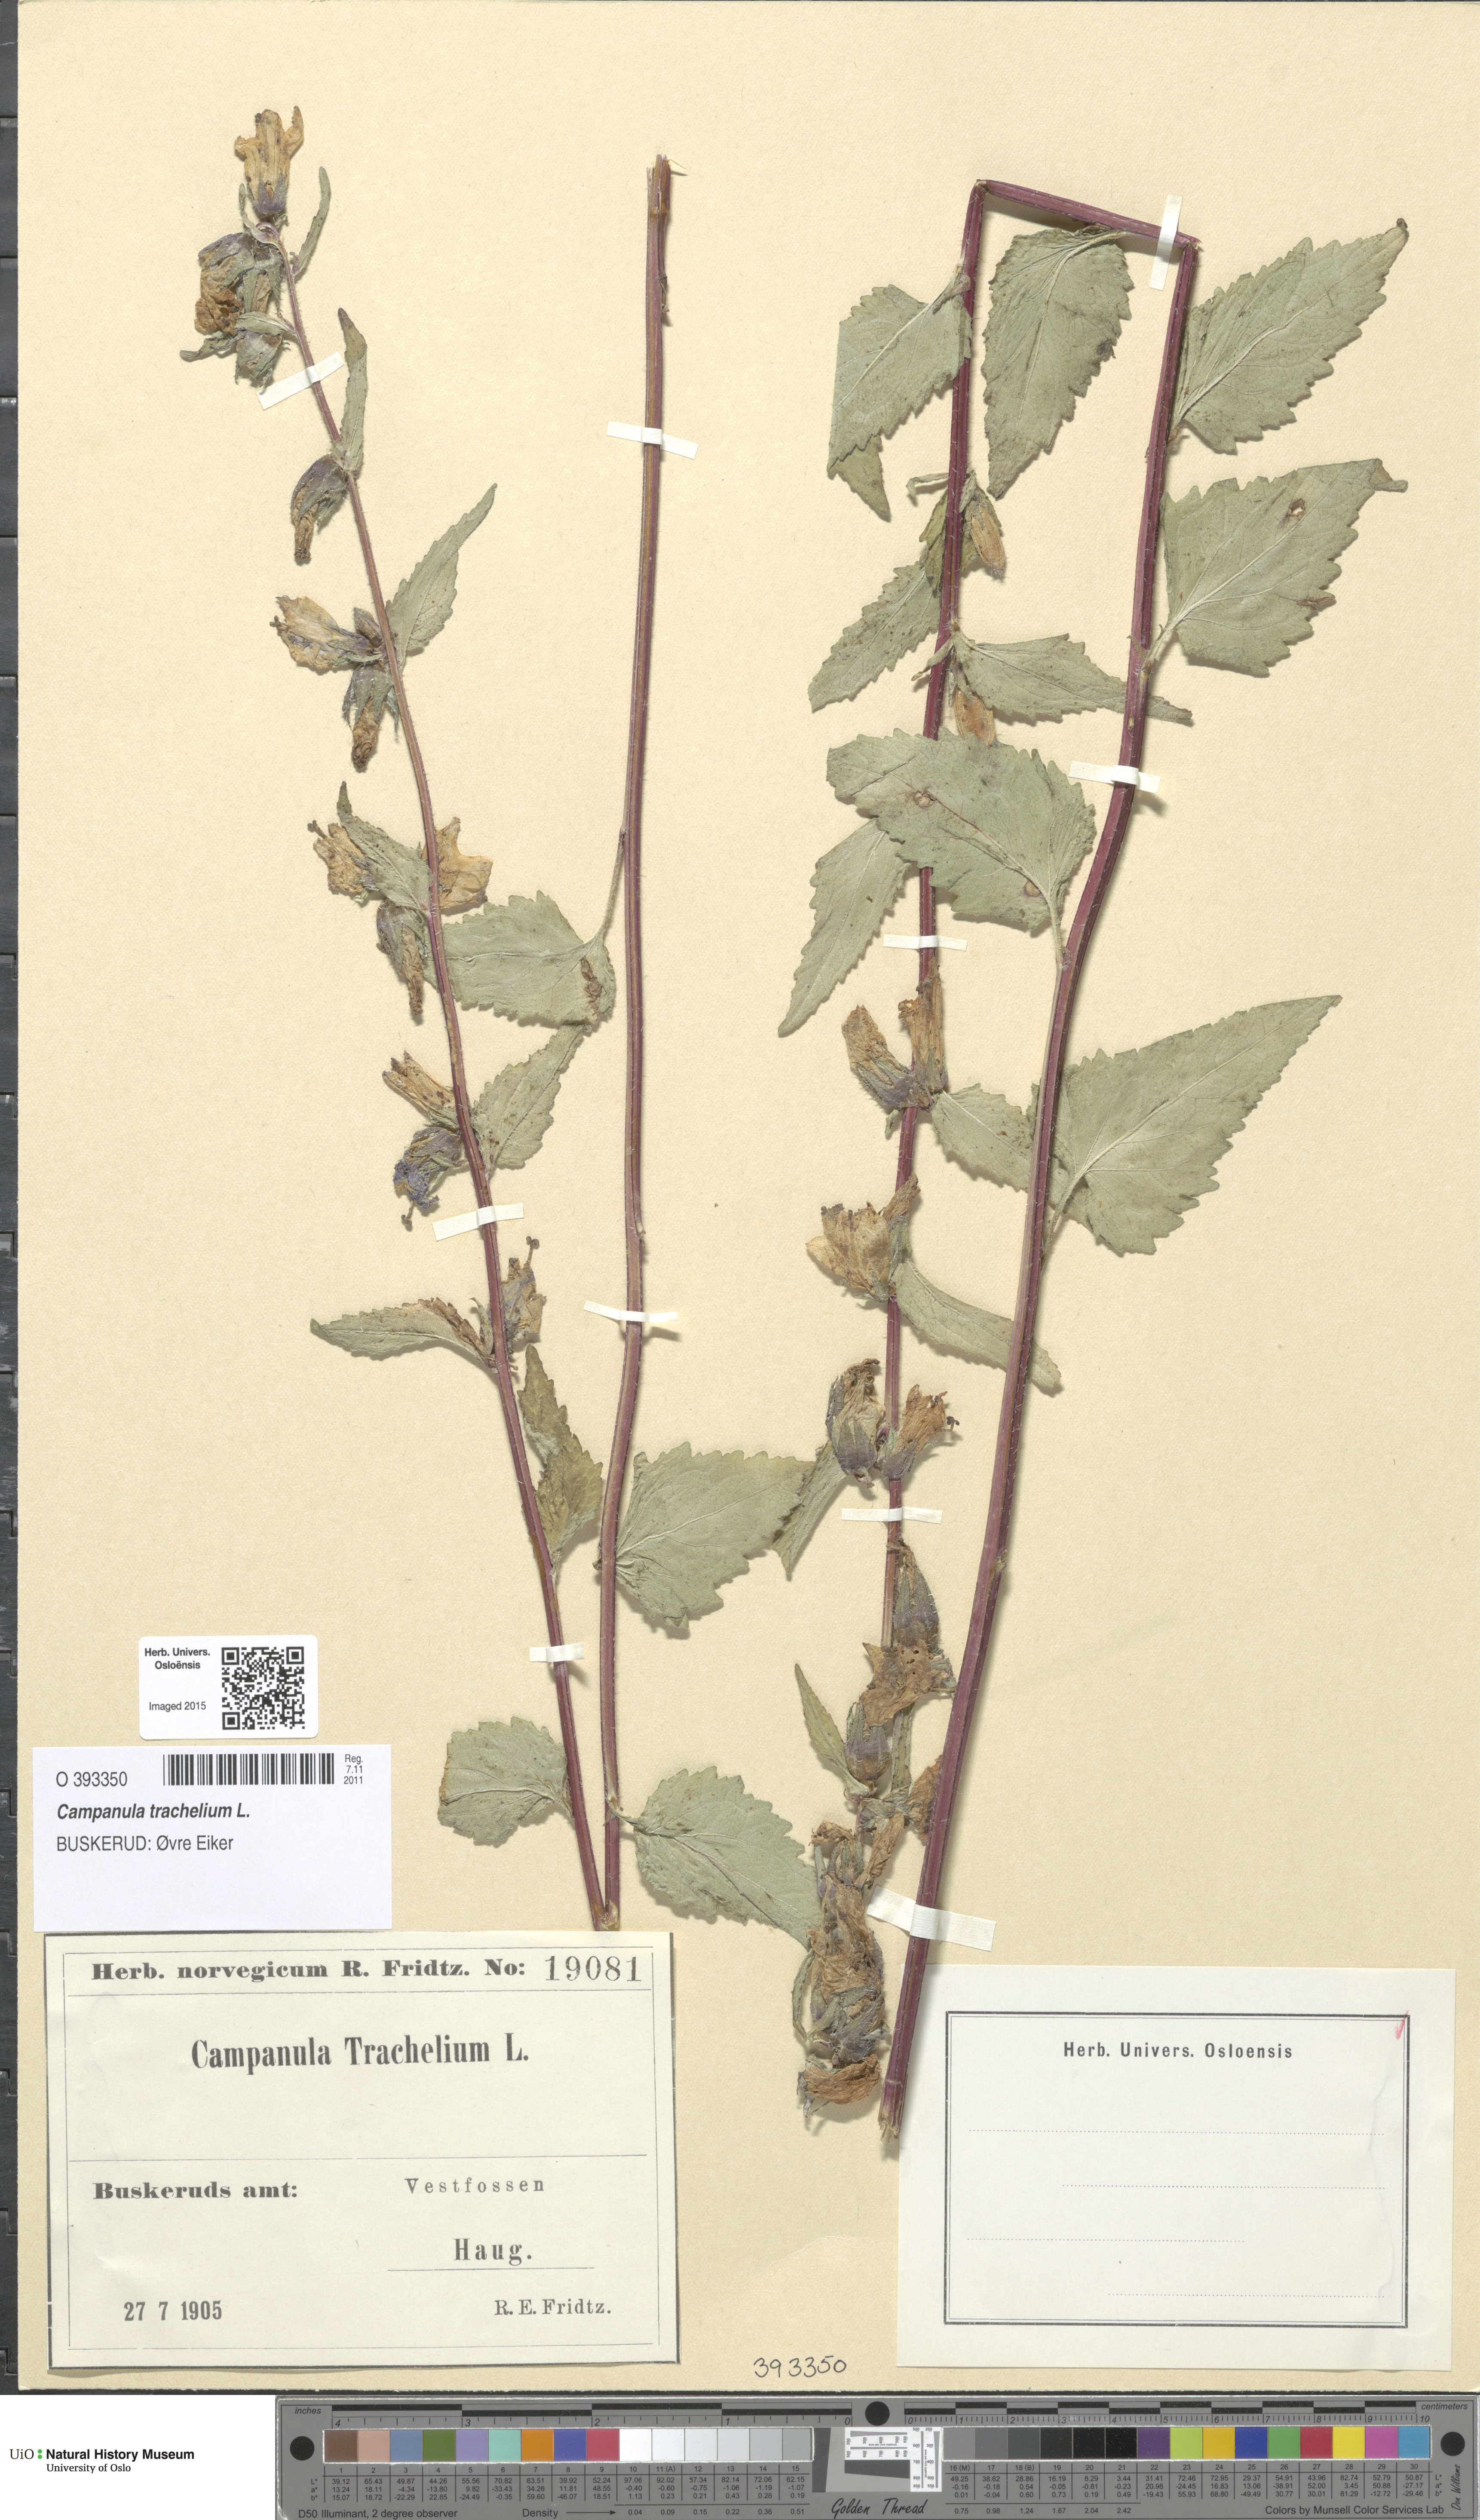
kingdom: Plantae
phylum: Tracheophyta
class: Magnoliopsida
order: Asterales
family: Campanulaceae
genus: Campanula
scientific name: Campanula trachelium
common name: Nettle-leaved bellflower
